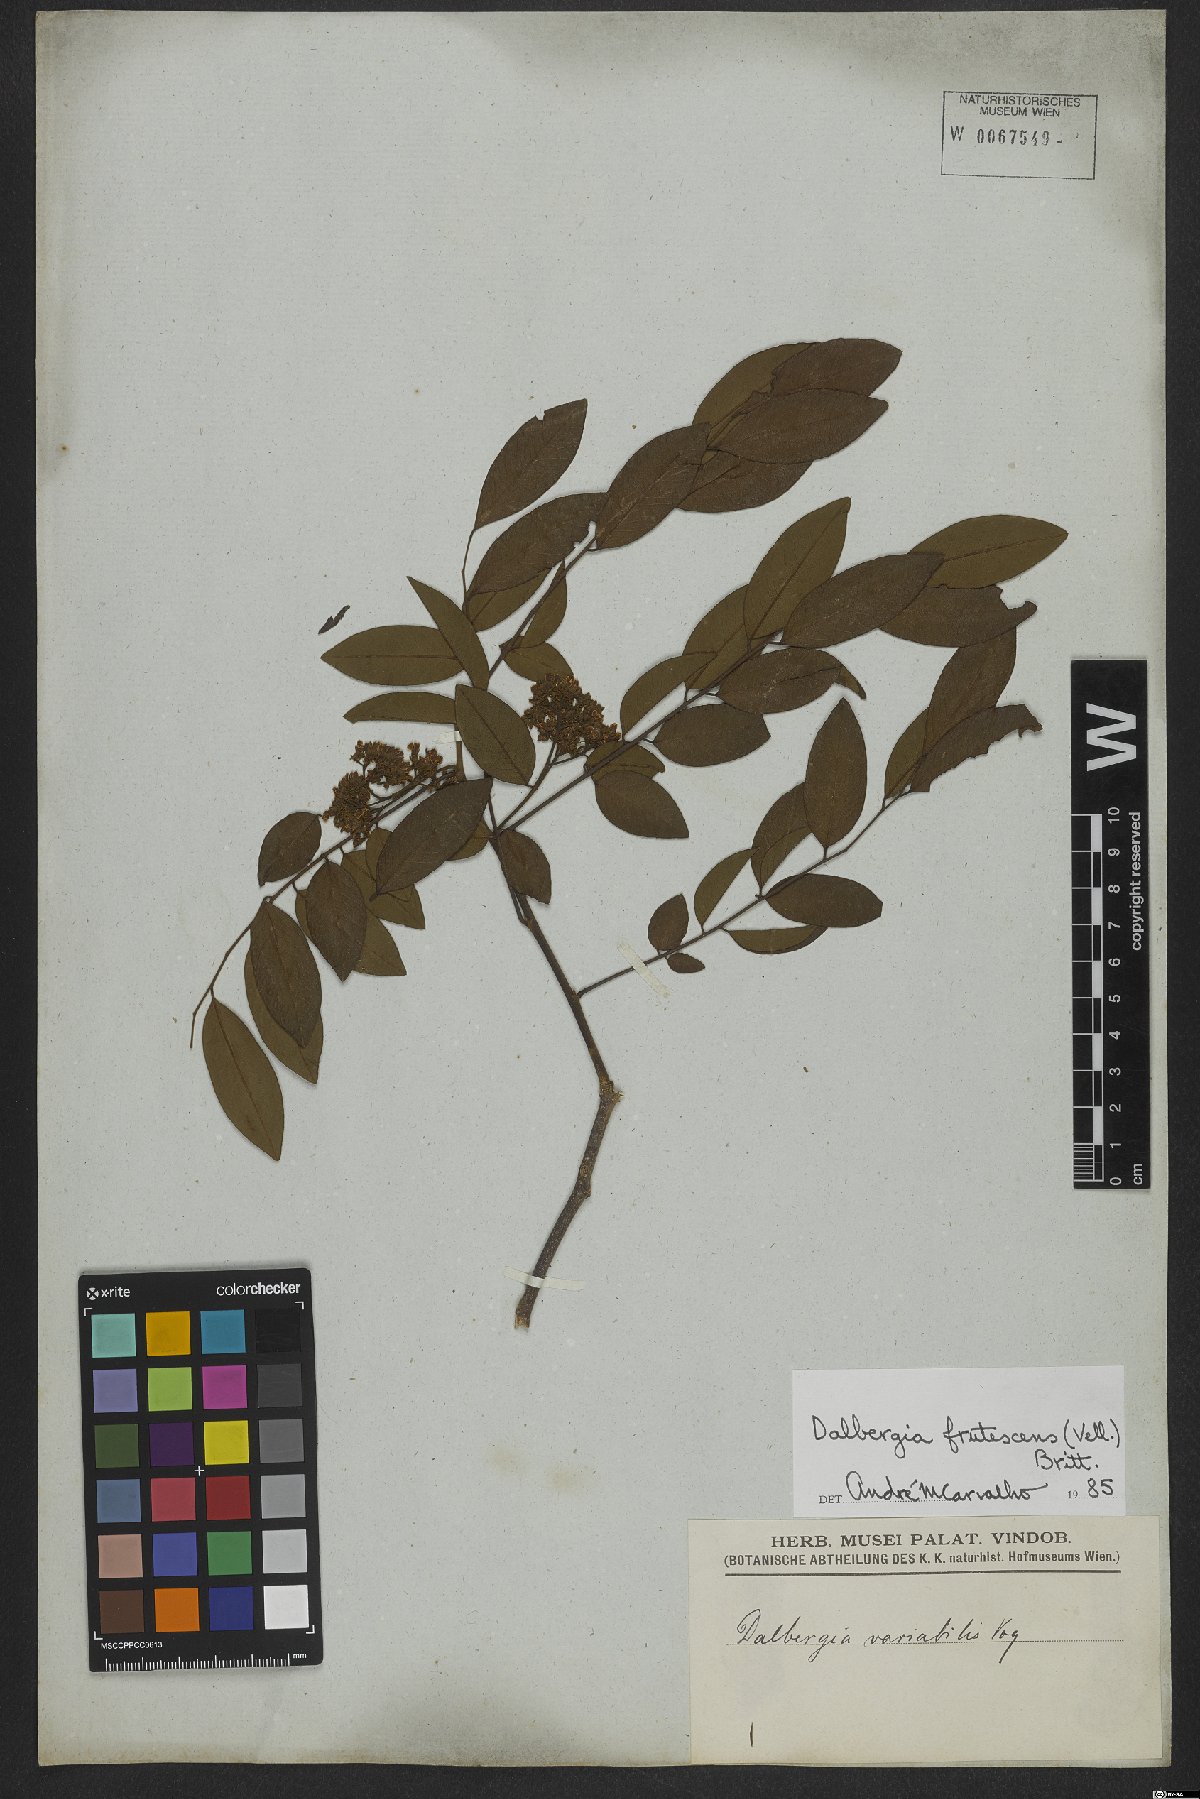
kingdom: Plantae
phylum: Tracheophyta
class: Magnoliopsida
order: Fabales
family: Fabaceae
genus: Dalbergia
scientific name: Dalbergia frutescens
